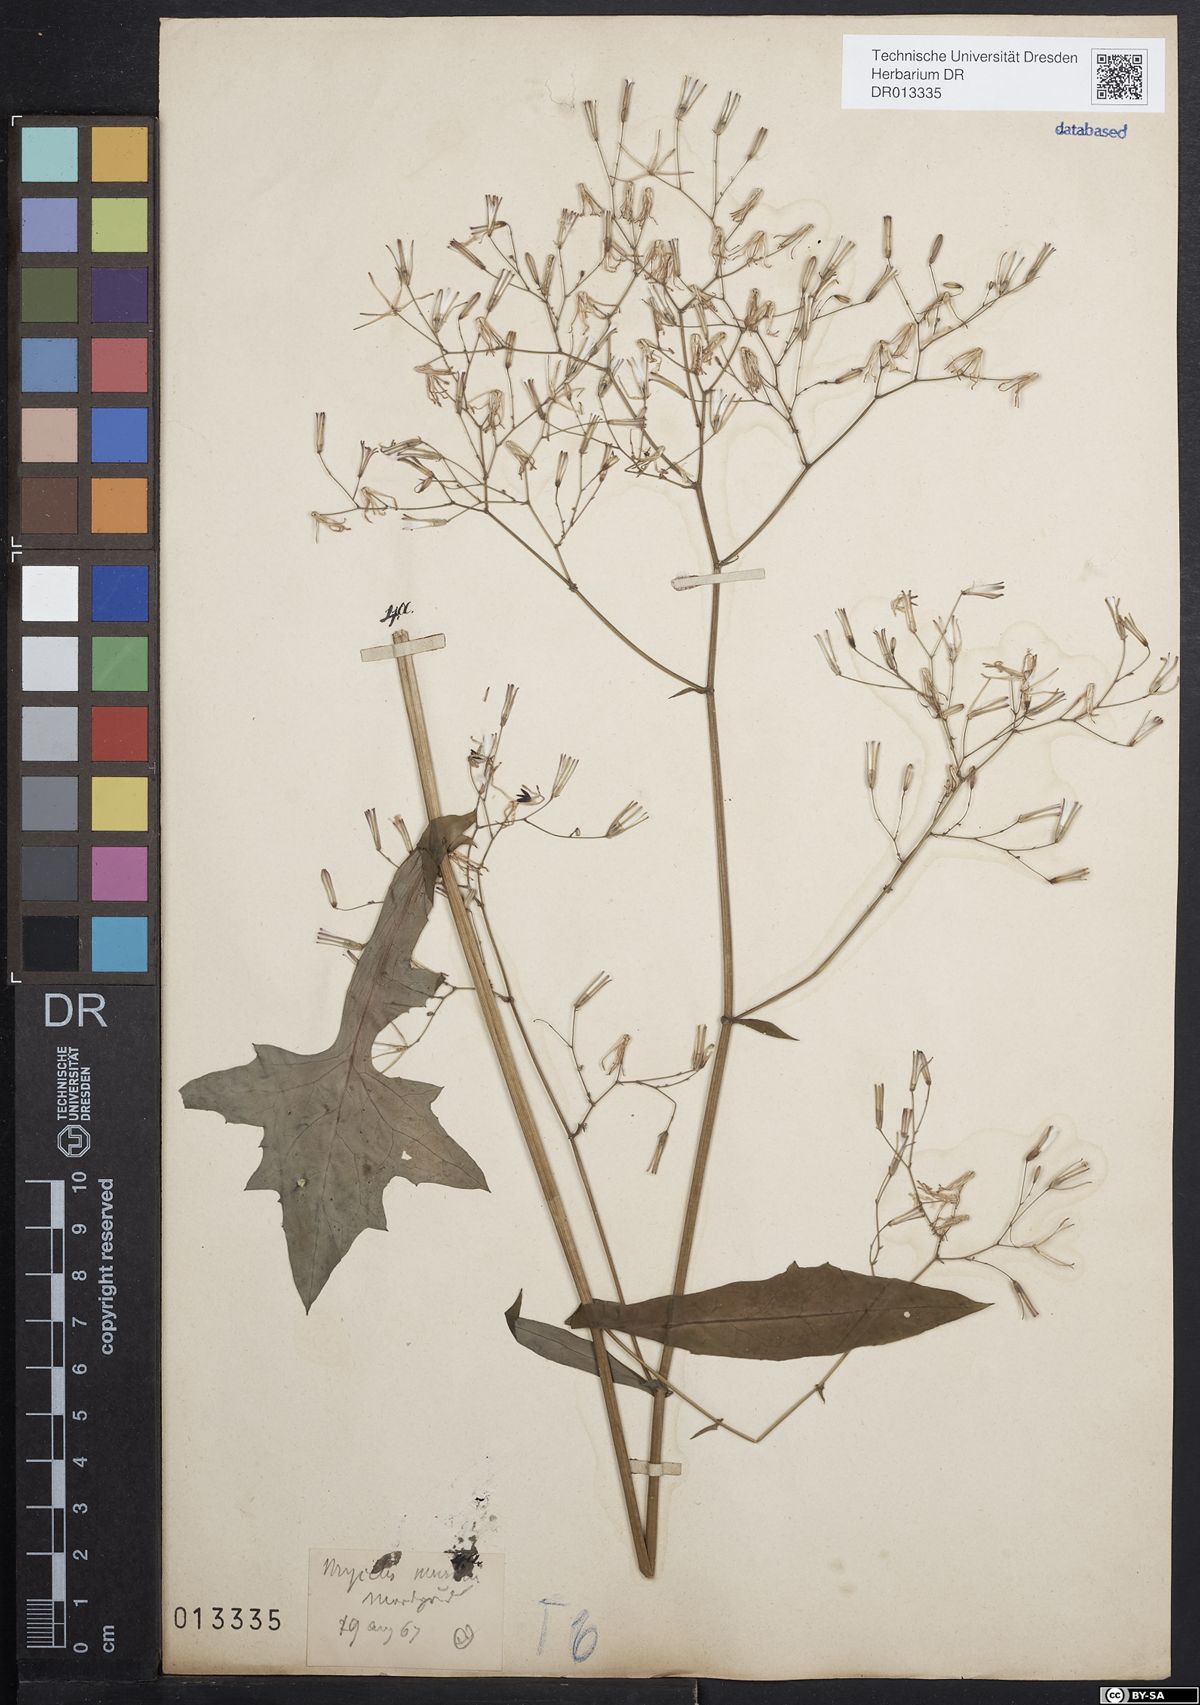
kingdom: Plantae
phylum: Tracheophyta
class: Magnoliopsida
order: Asterales
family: Asteraceae
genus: Mycelis
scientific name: Mycelis muralis
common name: Wall lettuce
